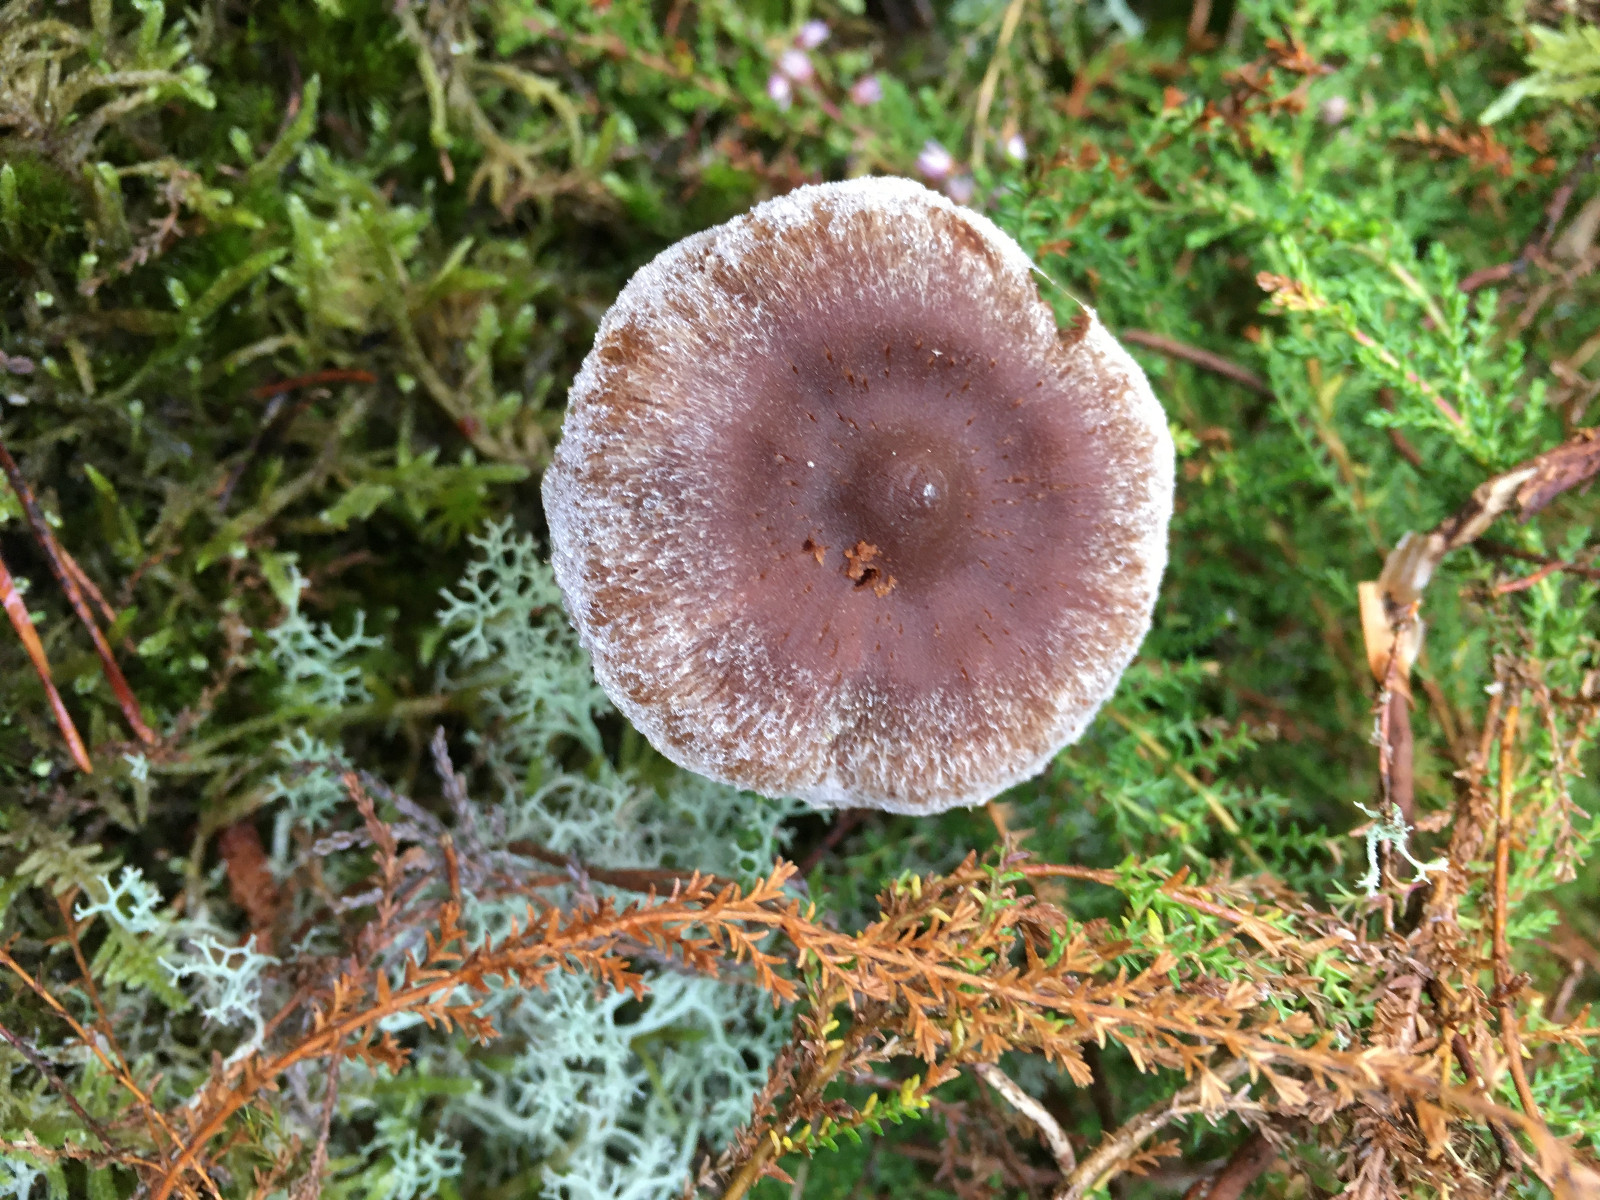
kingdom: Fungi
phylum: Basidiomycota
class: Agaricomycetes
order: Agaricales
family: Cortinariaceae
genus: Cortinarius
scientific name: Cortinarius
